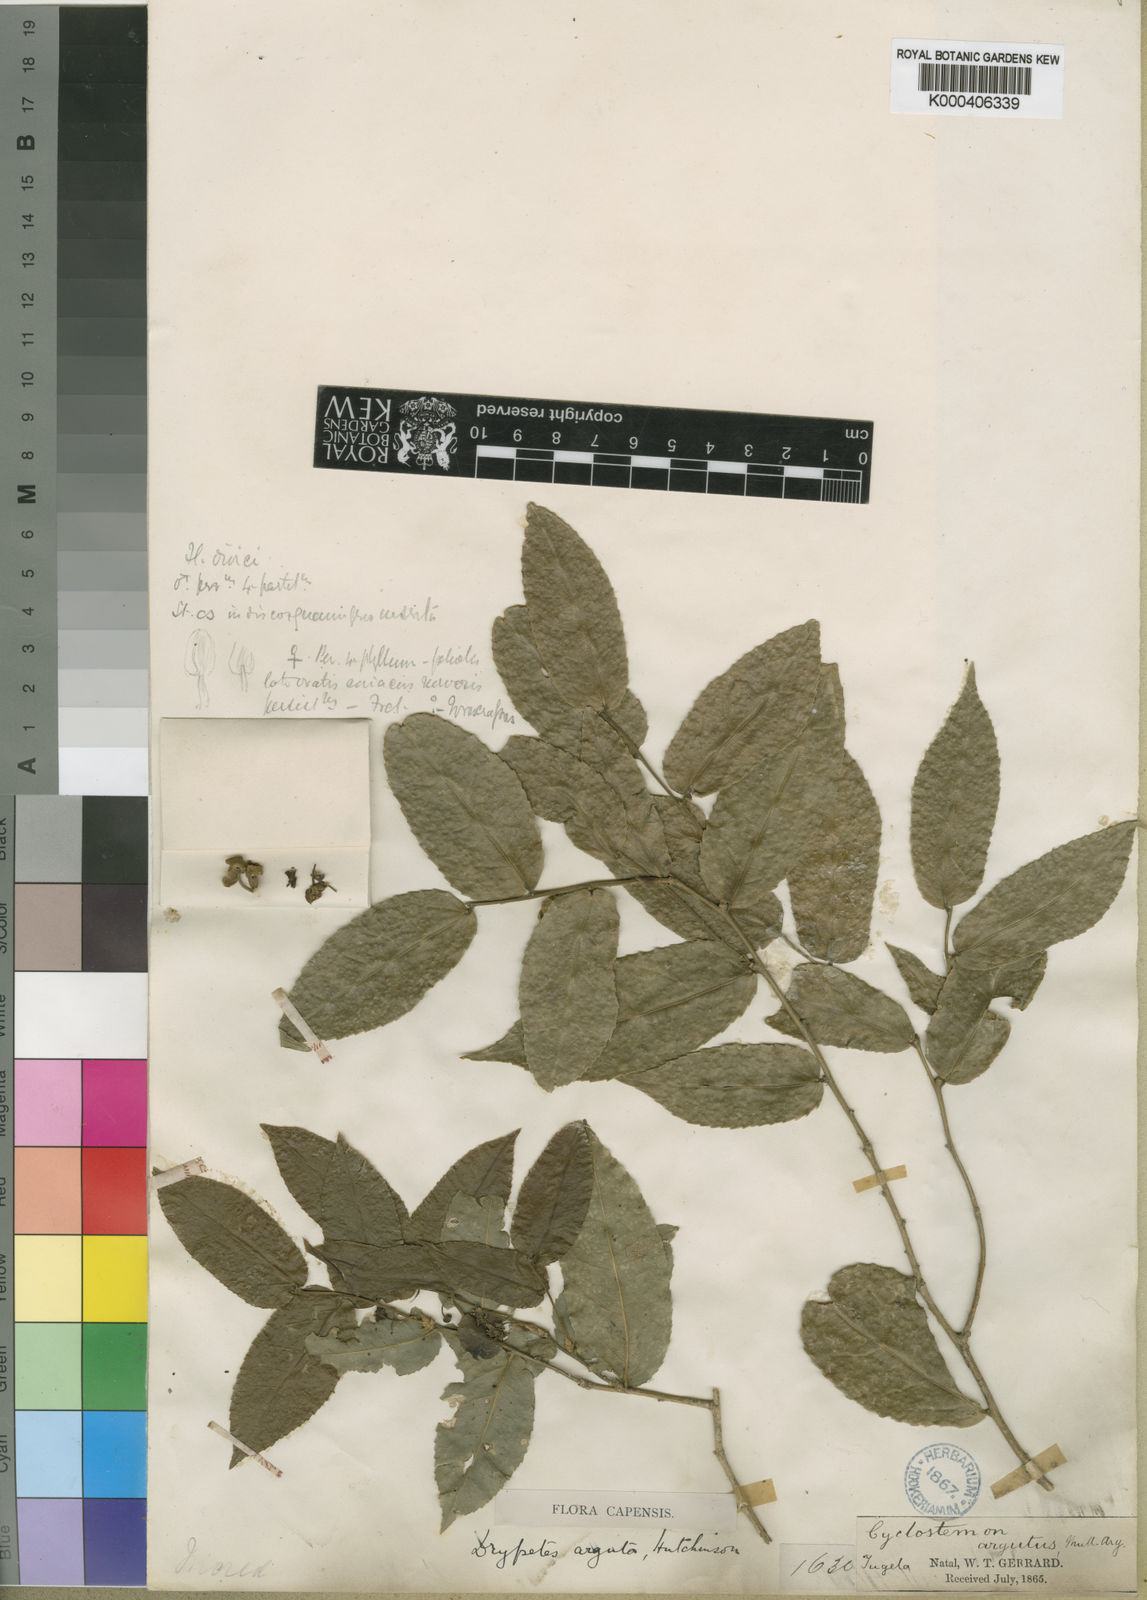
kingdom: Plantae
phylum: Tracheophyta
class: Magnoliopsida
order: Malpighiales
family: Putranjivaceae
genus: Drypetes
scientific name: Drypetes
